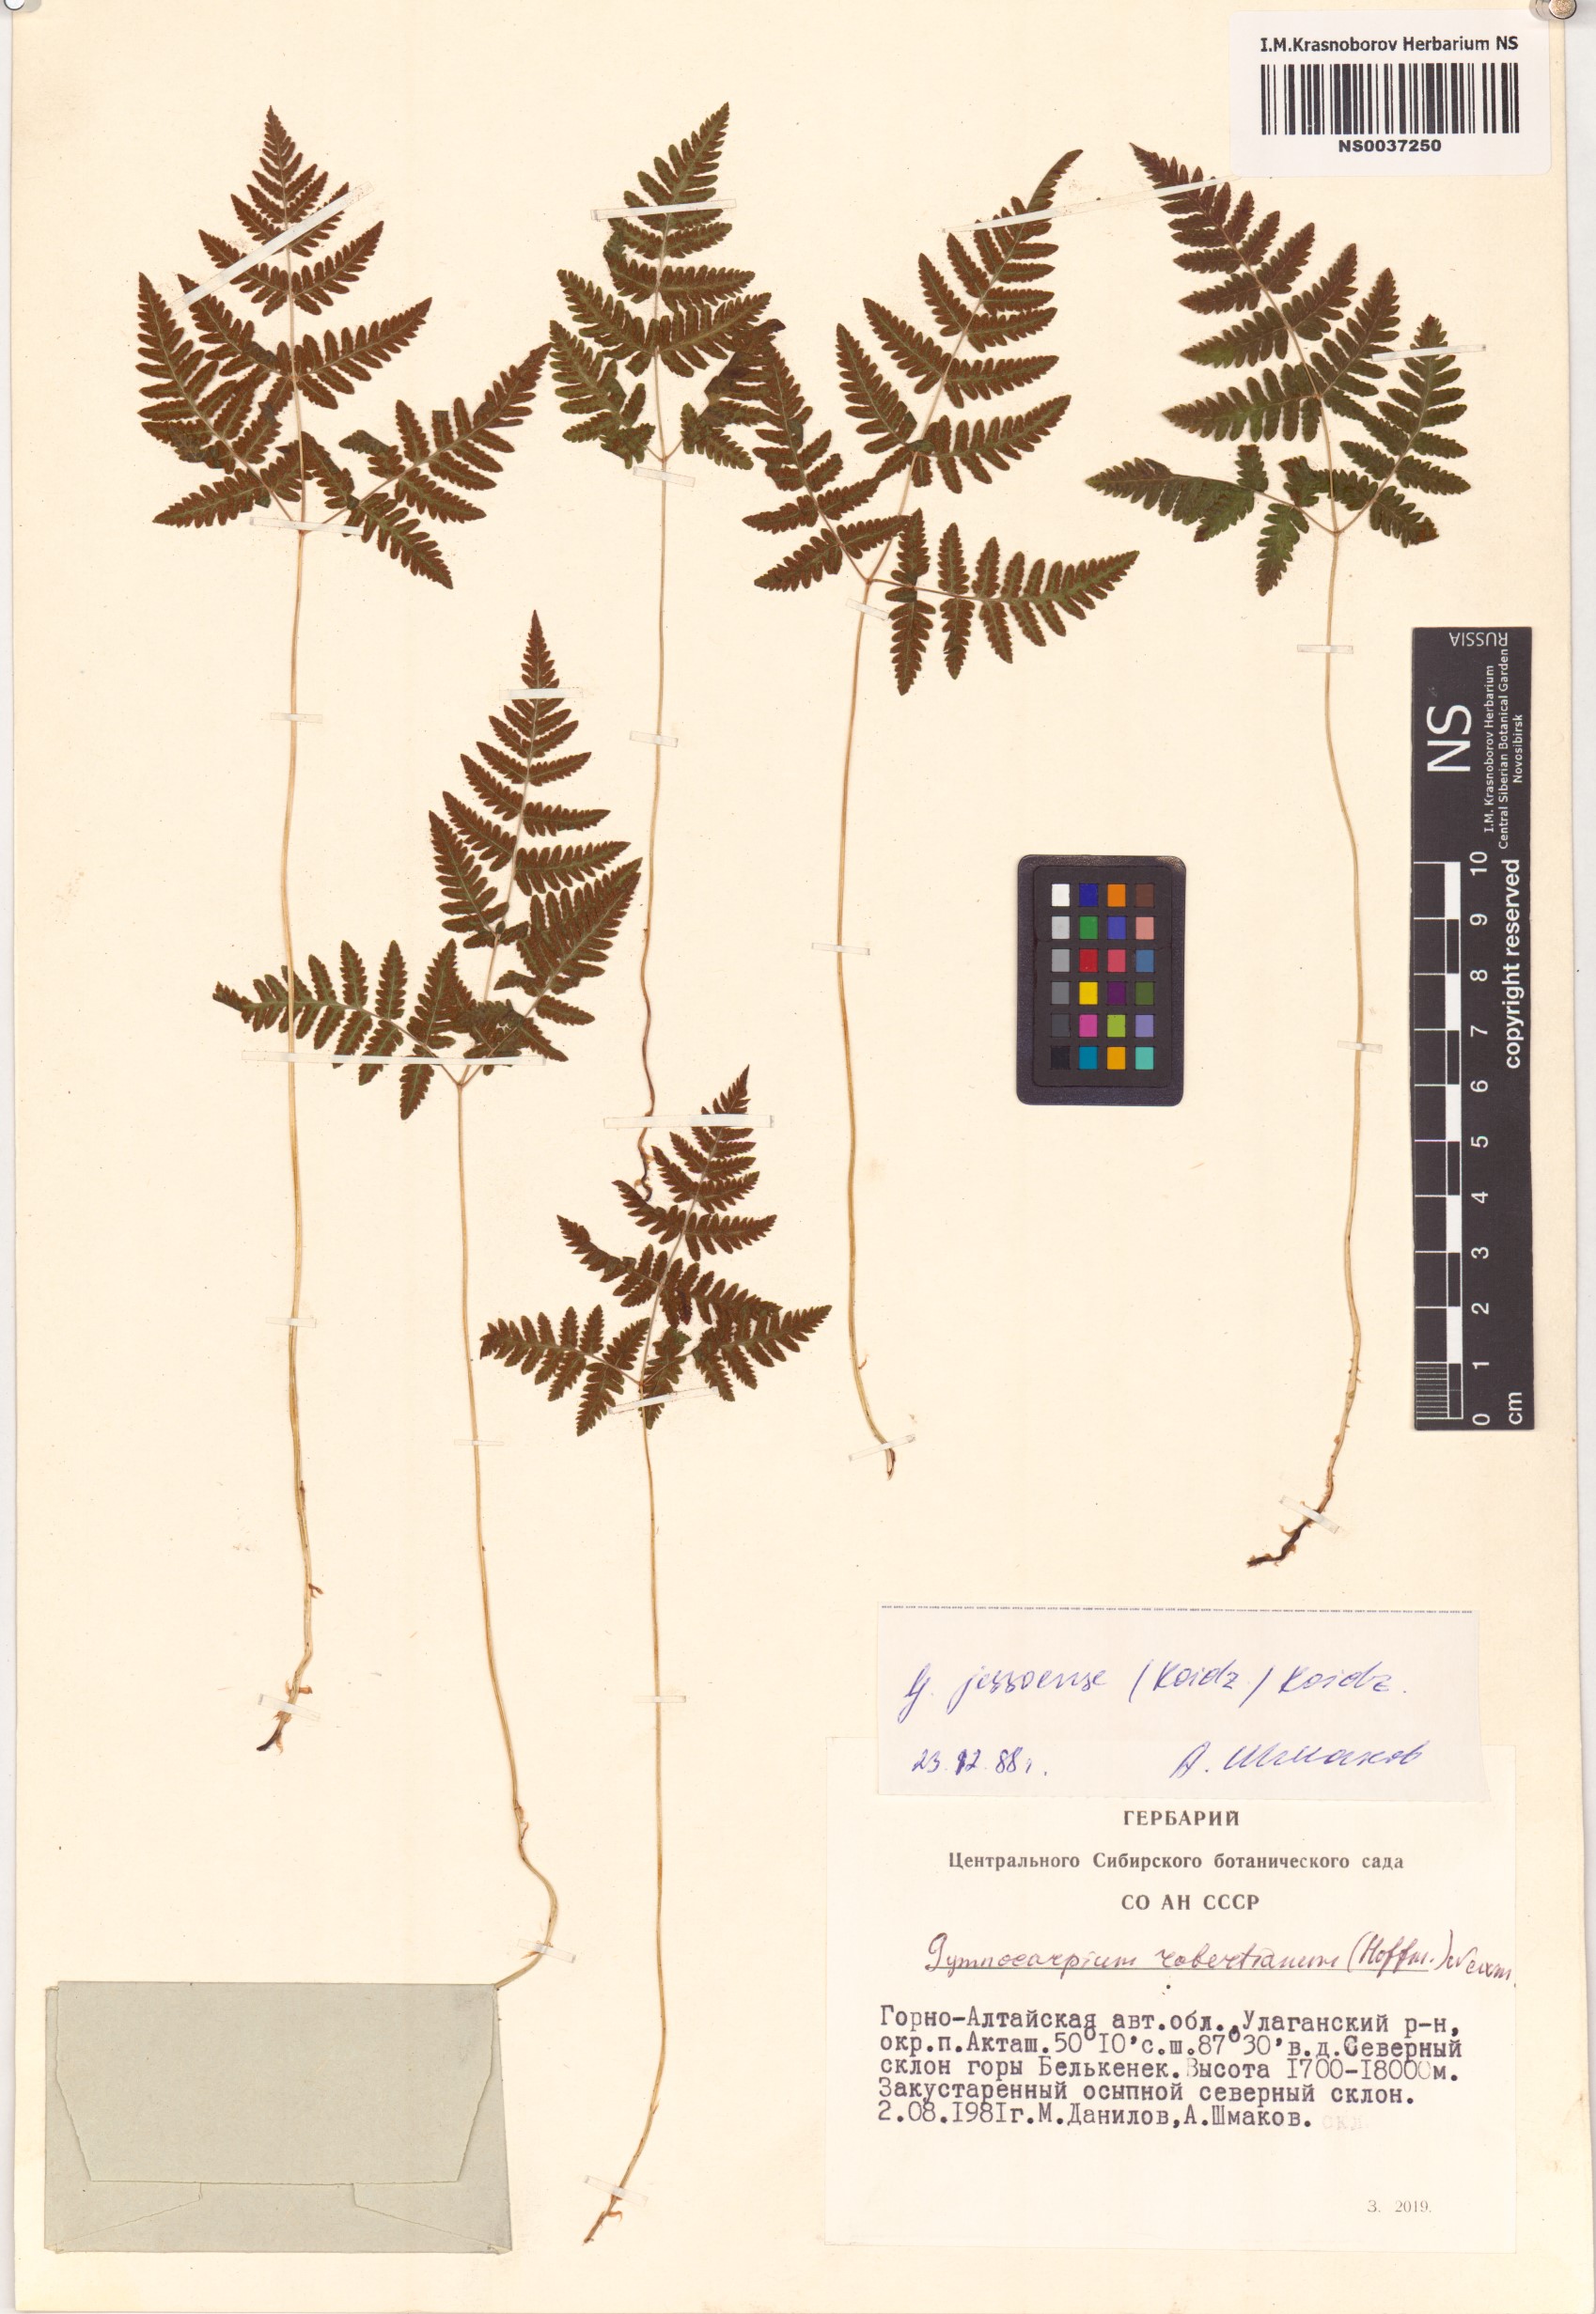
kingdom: Plantae
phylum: Tracheophyta
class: Polypodiopsida
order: Polypodiales
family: Cystopteridaceae
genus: Gymnocarpium
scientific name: Gymnocarpium jessoense
